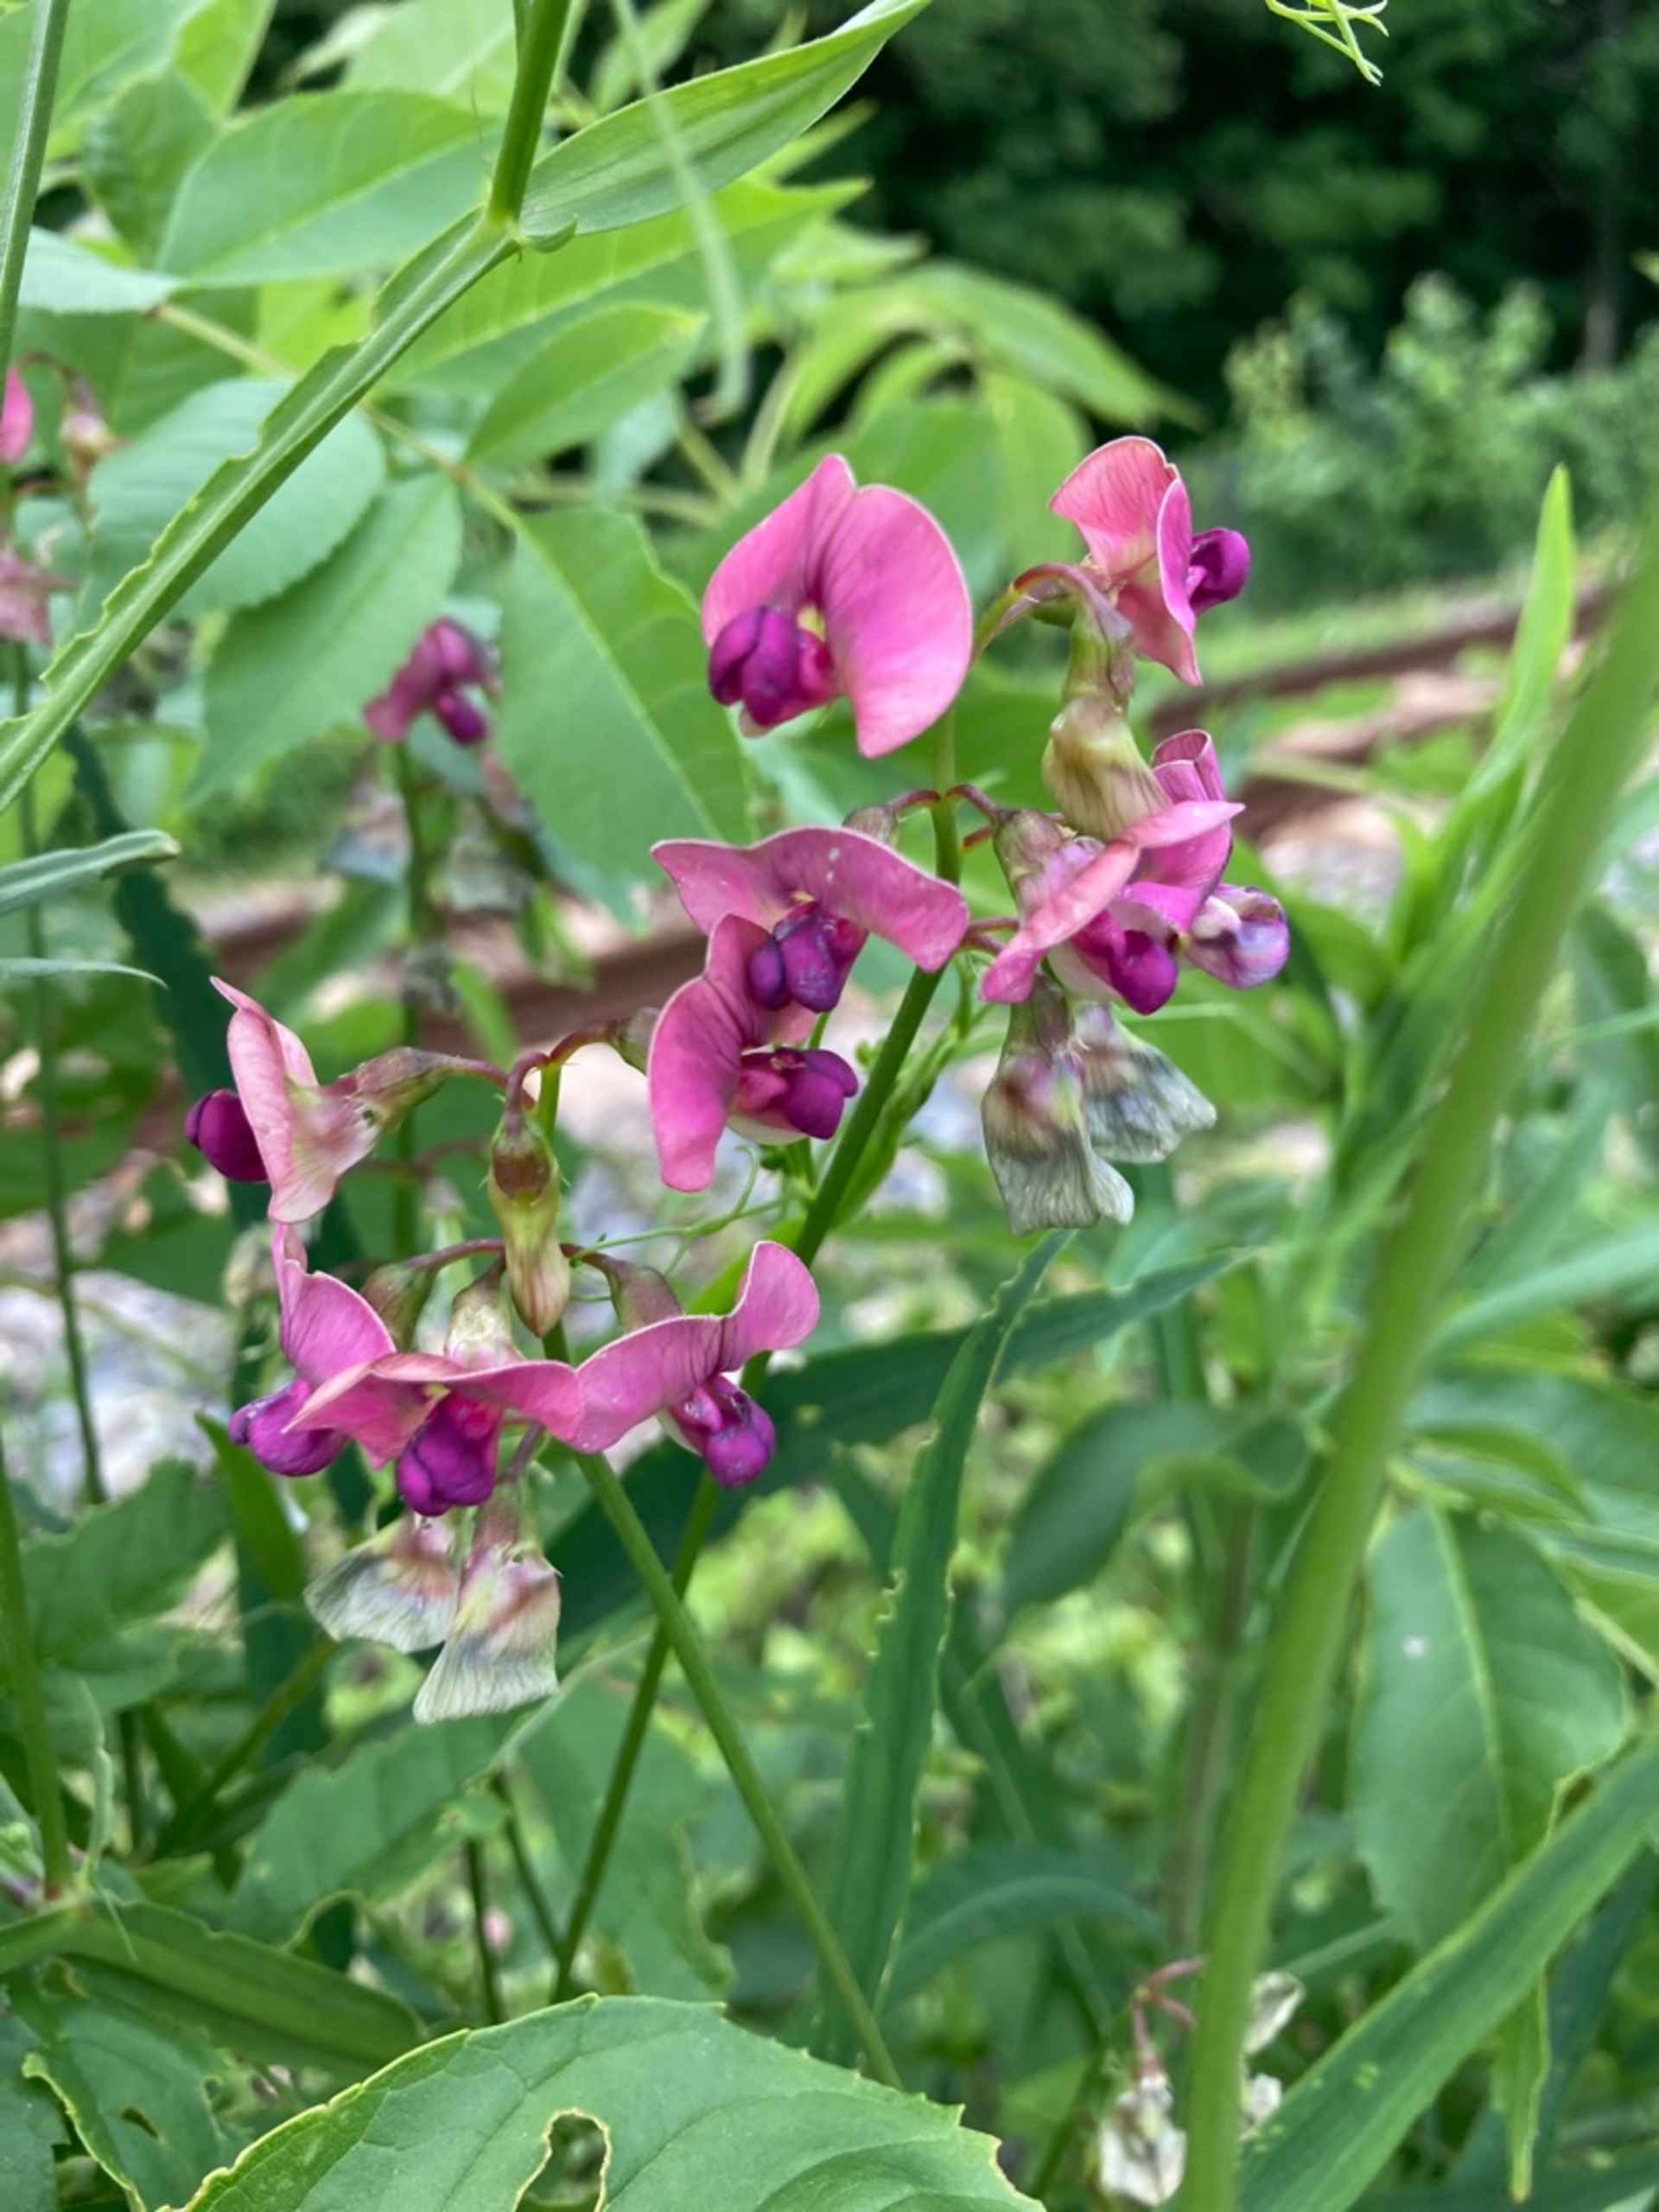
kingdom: Plantae
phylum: Tracheophyta
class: Magnoliopsida
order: Fabales
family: Fabaceae
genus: Lathyrus
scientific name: Lathyrus sylvestris
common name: Skov-fladbælg
